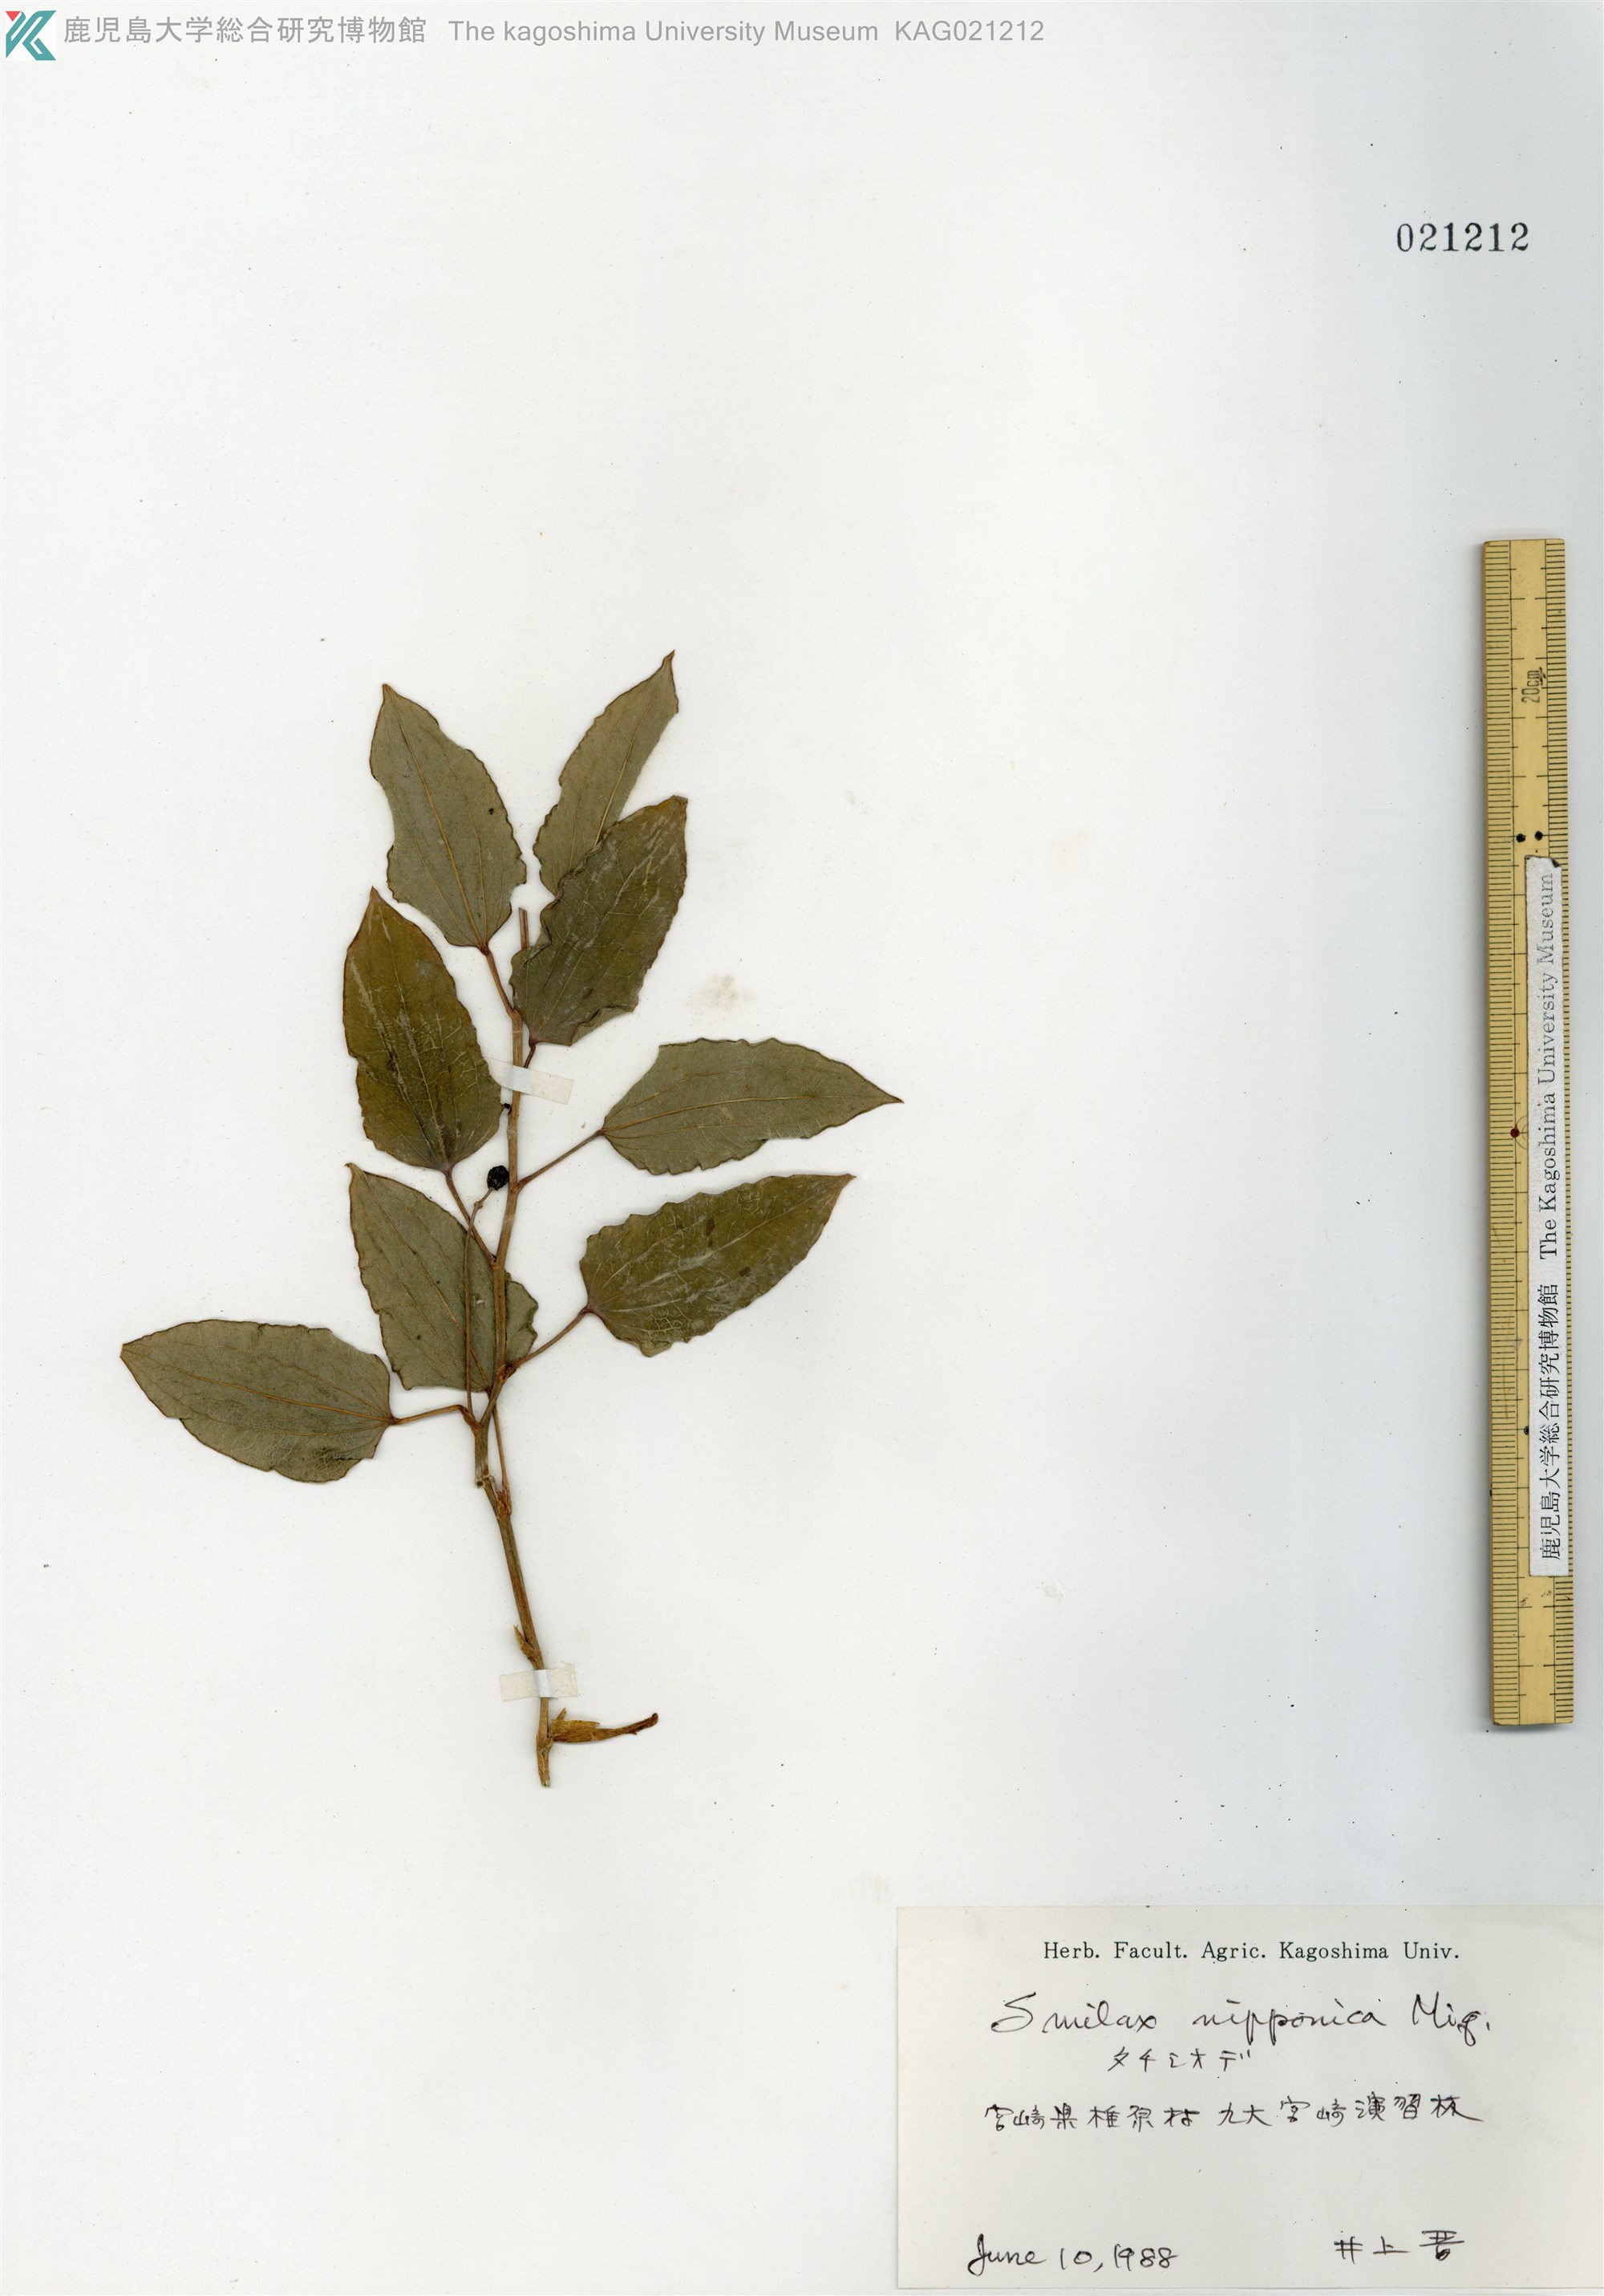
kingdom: Plantae
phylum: Tracheophyta
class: Liliopsida
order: Liliales
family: Smilacaceae
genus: Smilax
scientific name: Smilax nipponica
